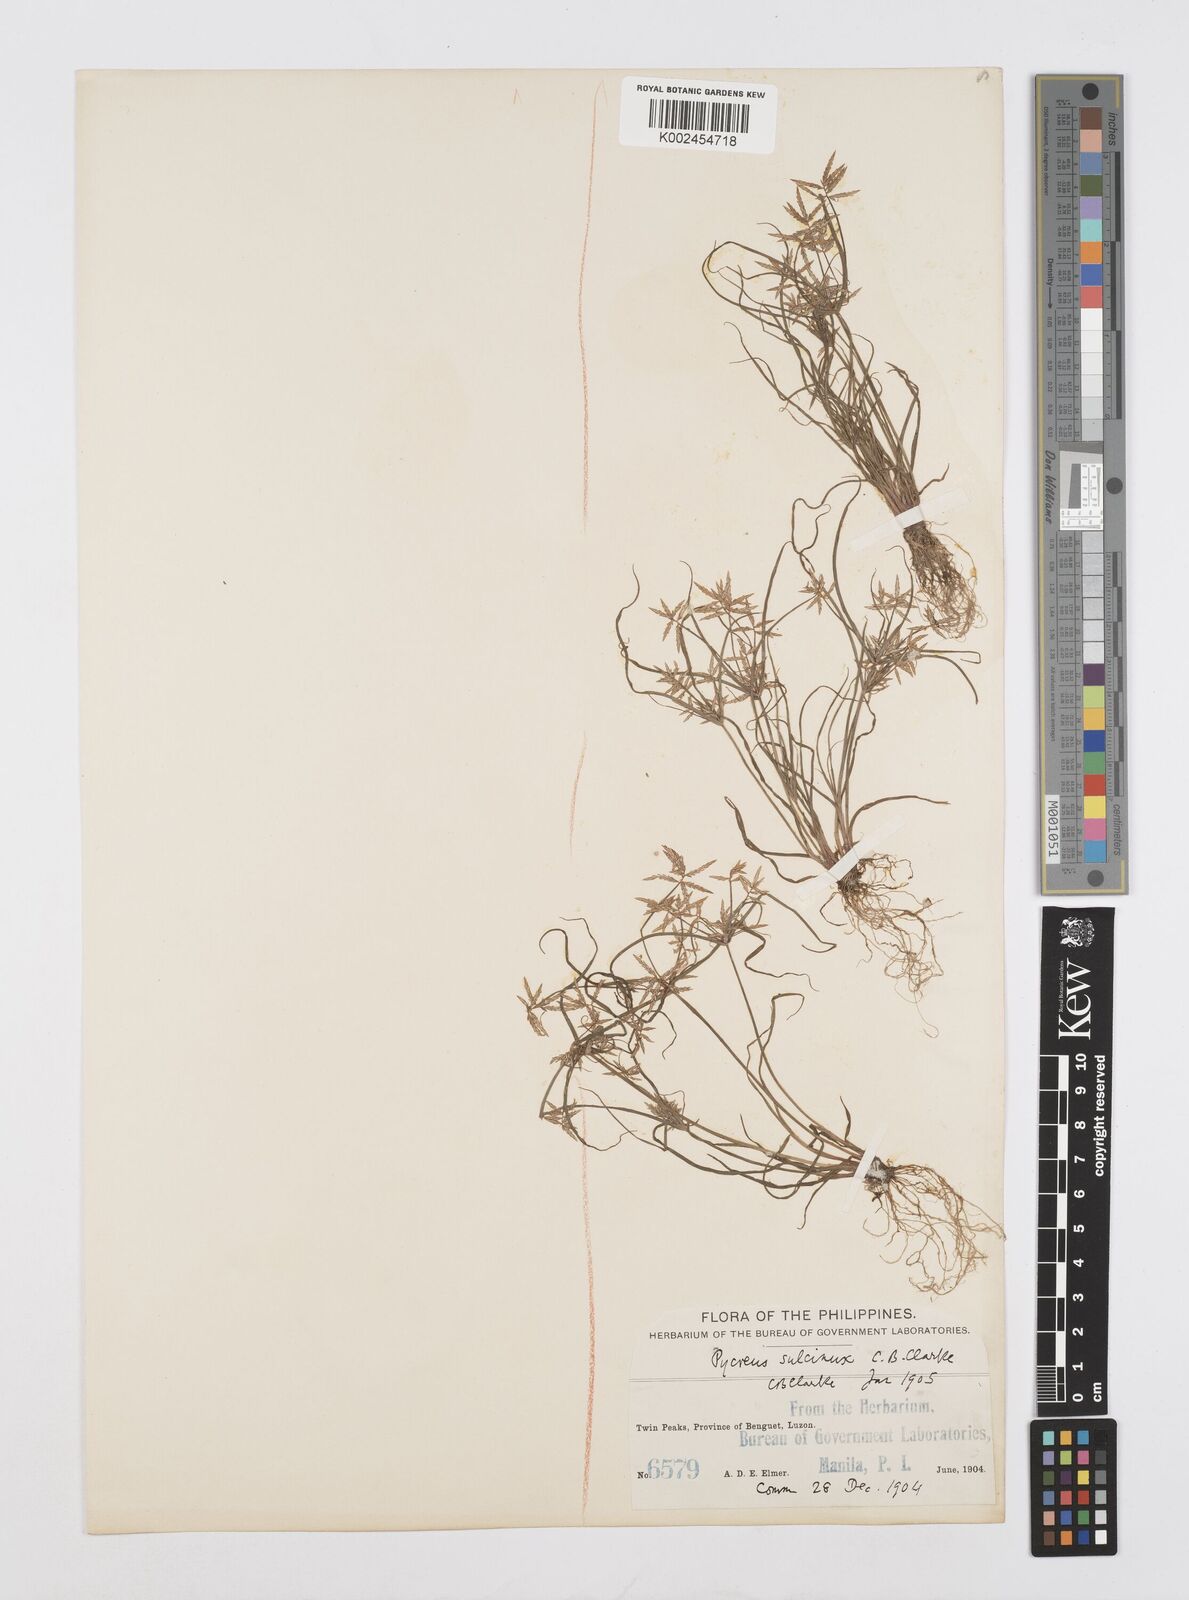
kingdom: Plantae
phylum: Tracheophyta
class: Liliopsida
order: Poales
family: Cyperaceae
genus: Cyperus
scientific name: Cyperus sulcinux
